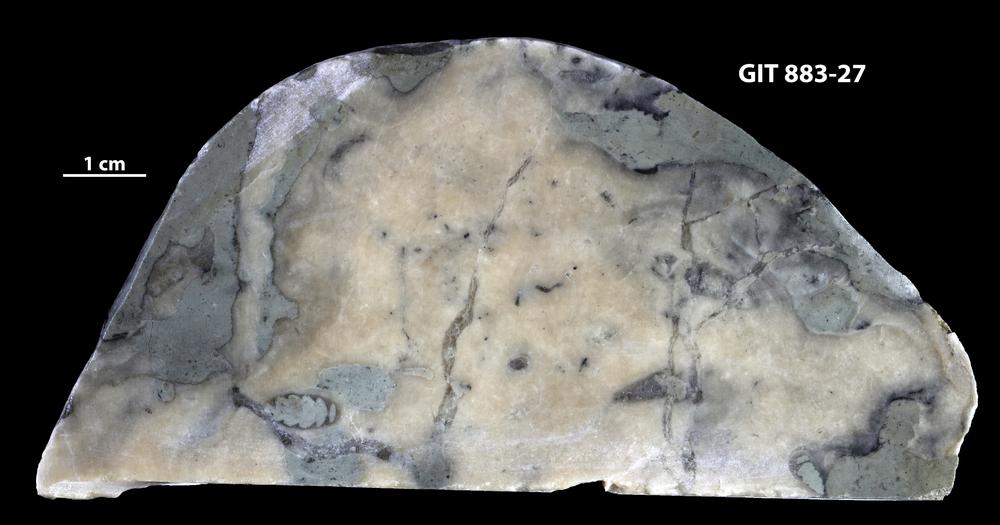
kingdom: Animalia
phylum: Porifera
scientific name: Porifera
